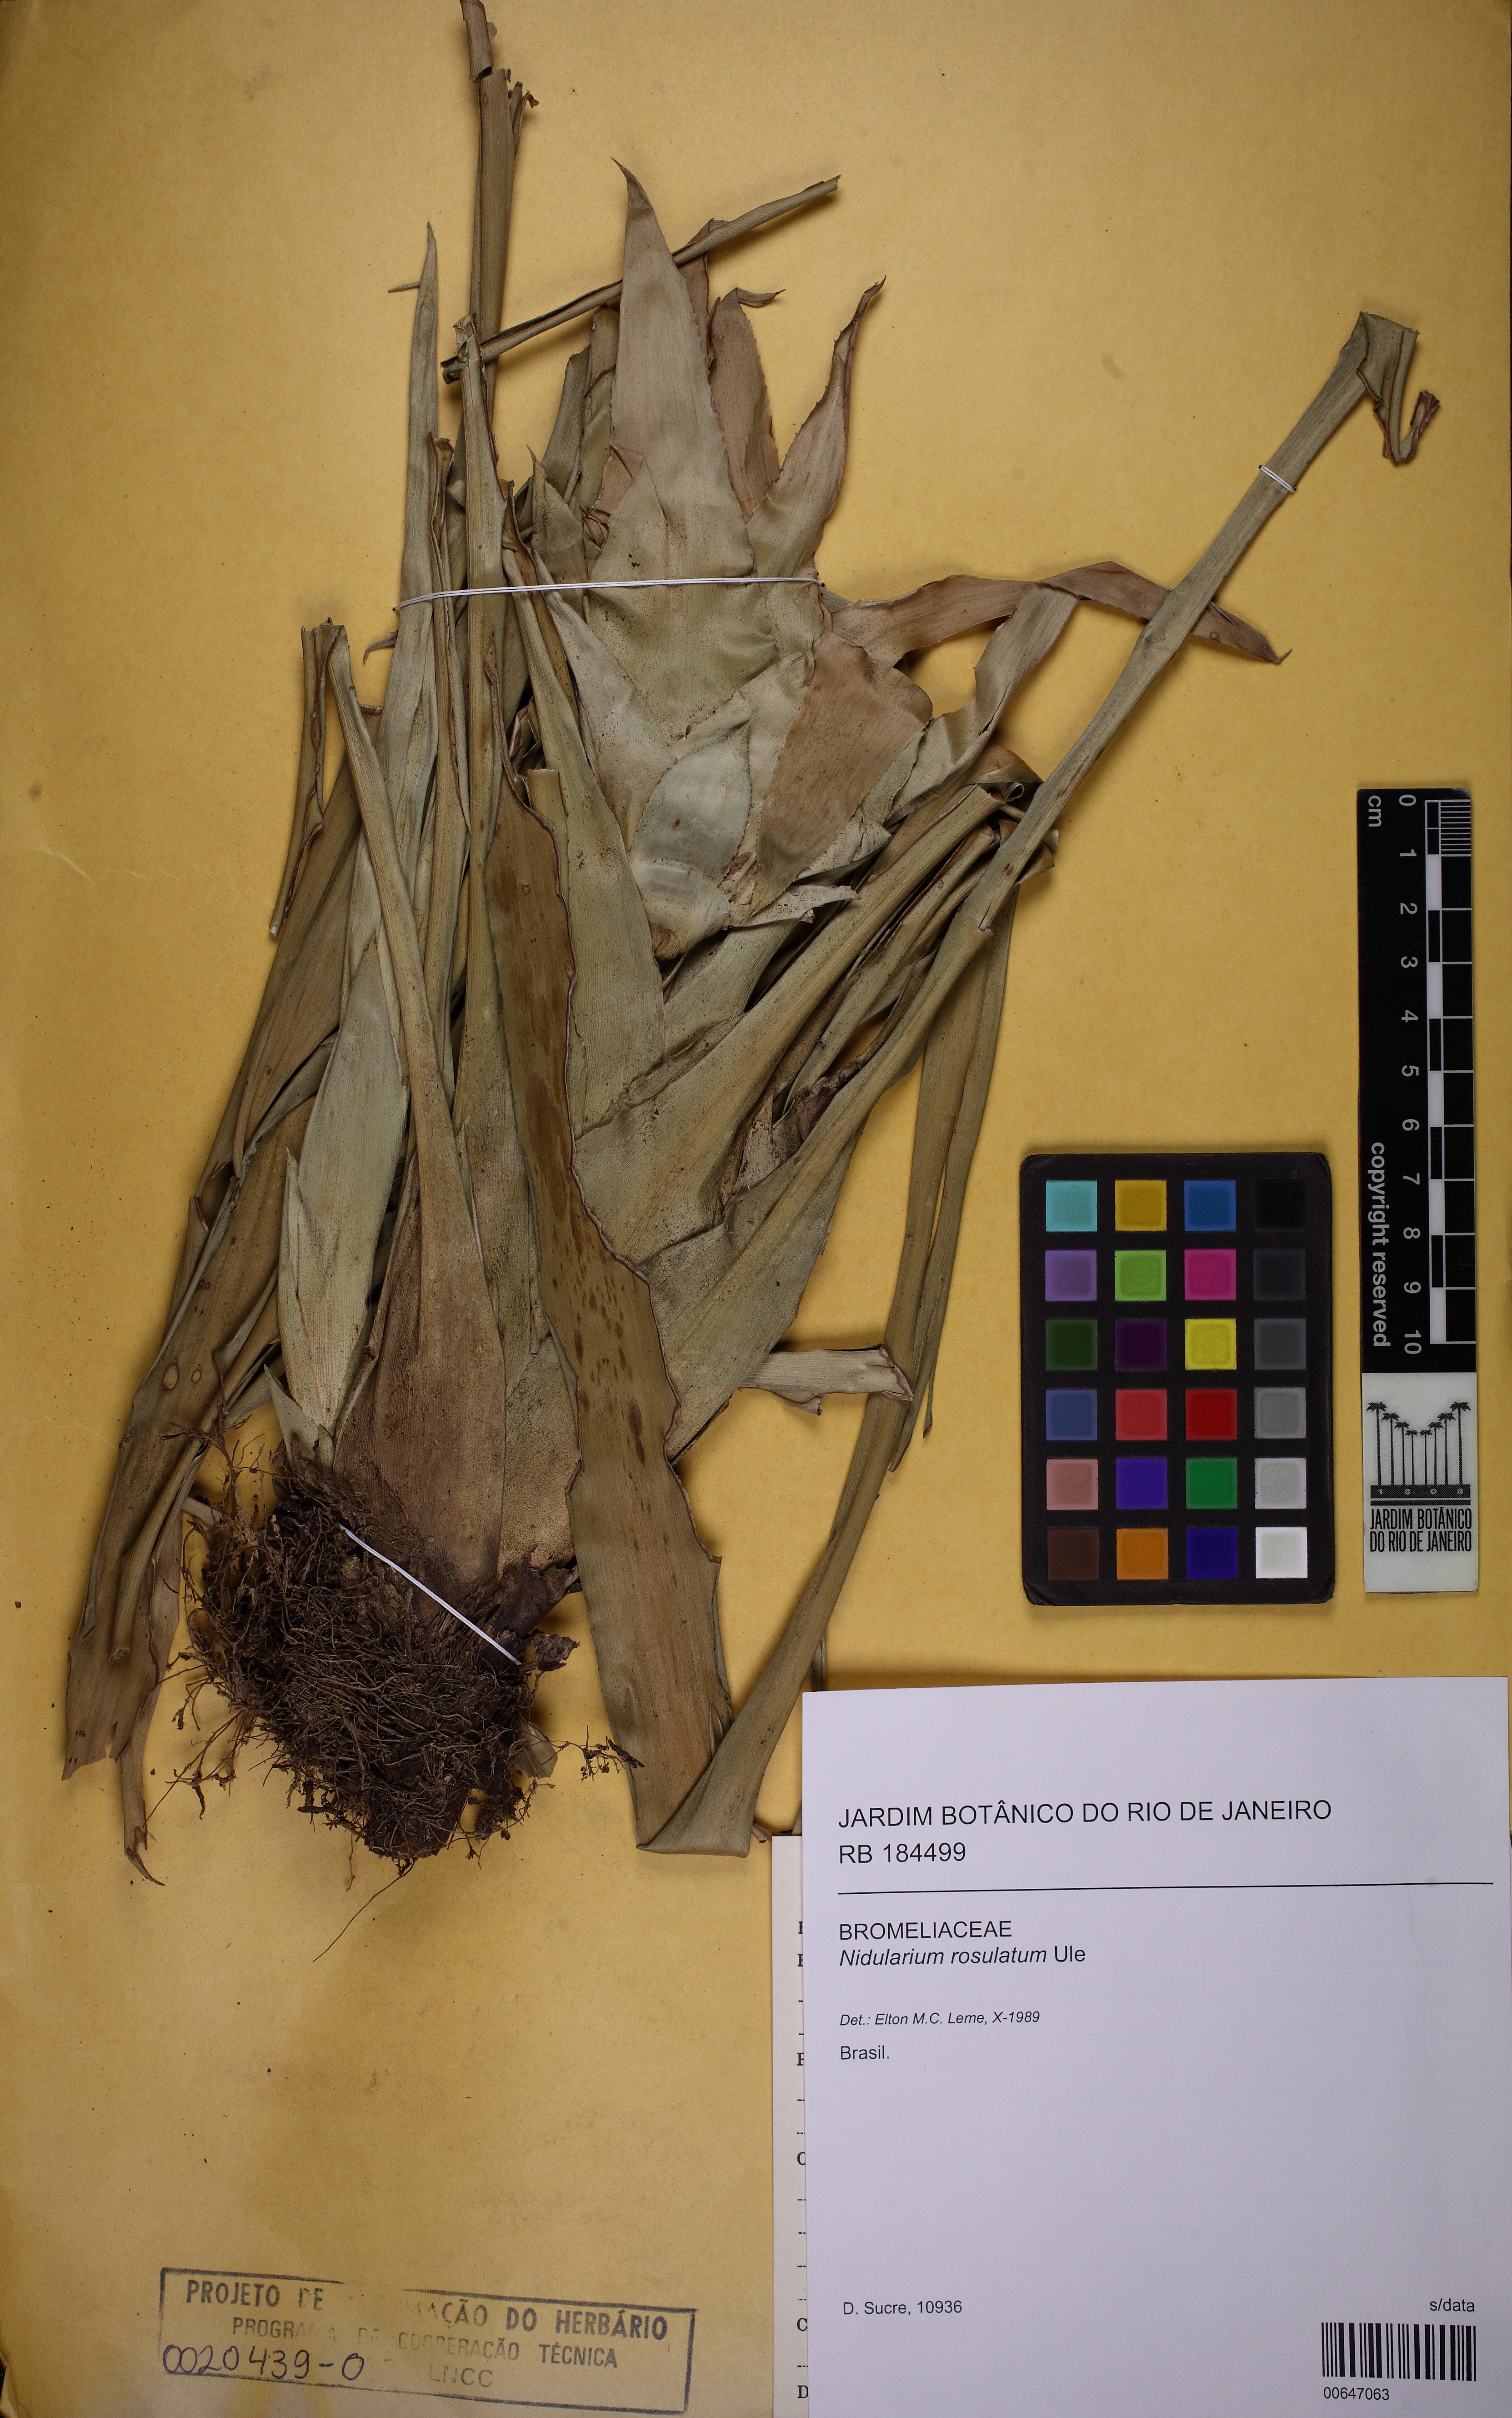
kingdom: Plantae
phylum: Tracheophyta
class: Liliopsida
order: Poales
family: Bromeliaceae
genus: Nidularium
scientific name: Nidularium rosulatum
